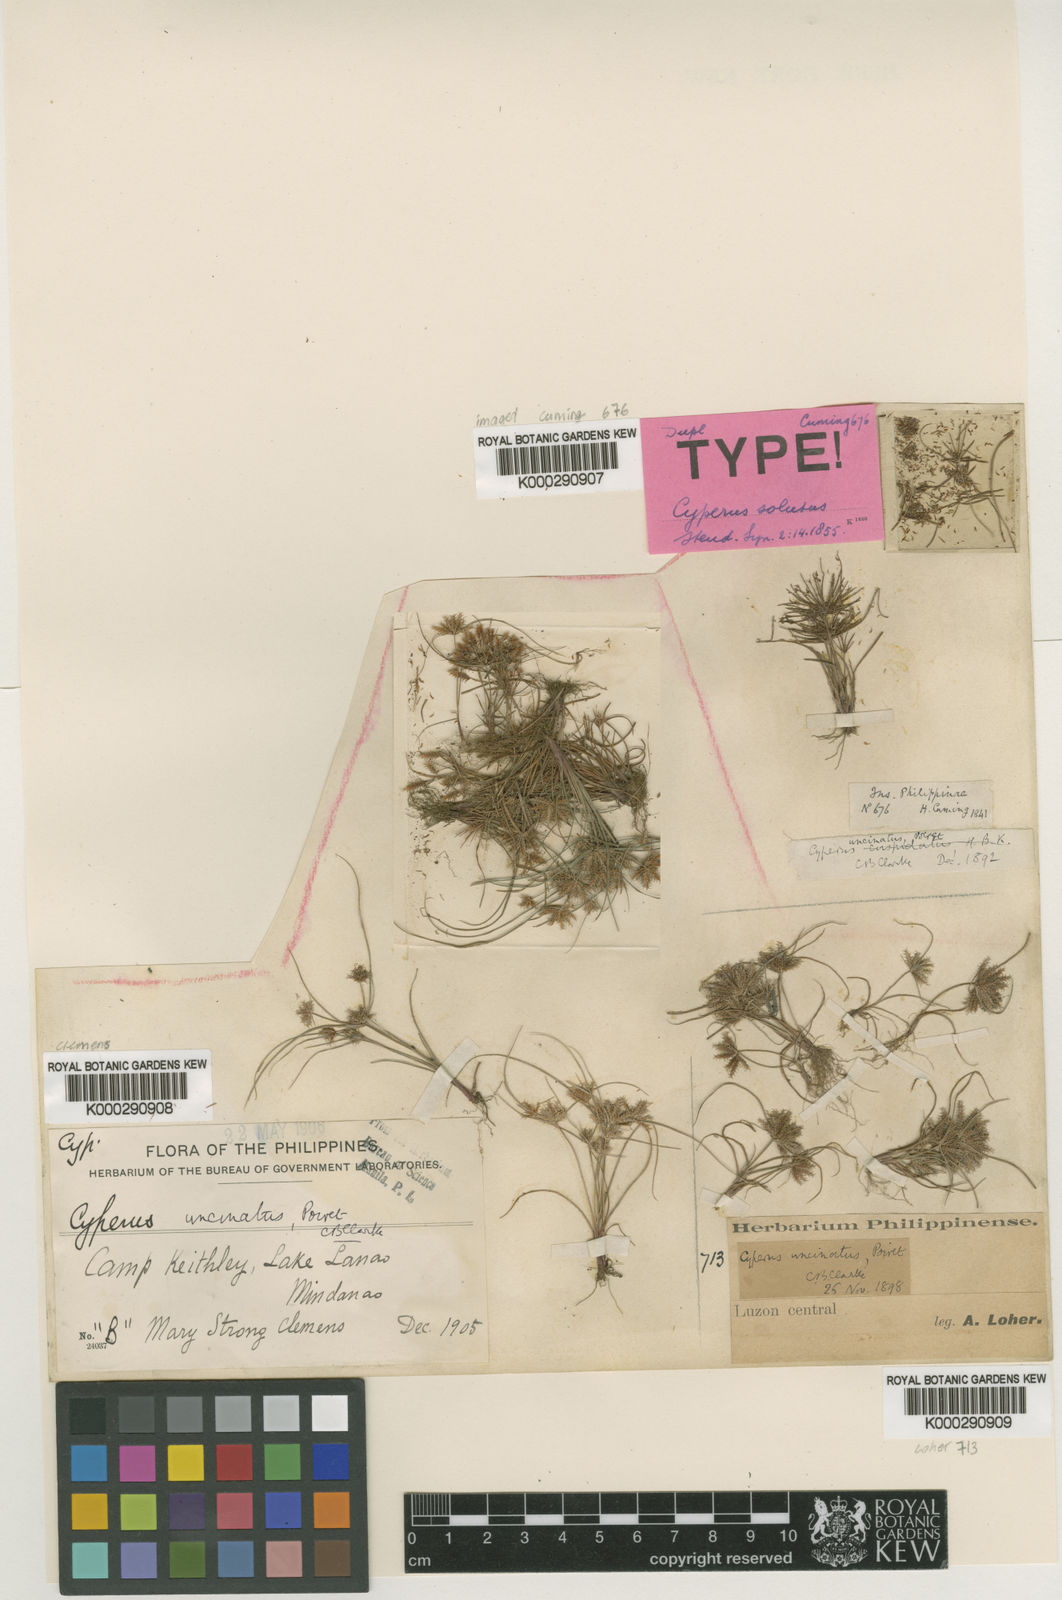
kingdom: Plantae
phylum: Tracheophyta
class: Liliopsida
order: Poales
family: Cyperaceae
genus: Cyperus
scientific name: Cyperus
